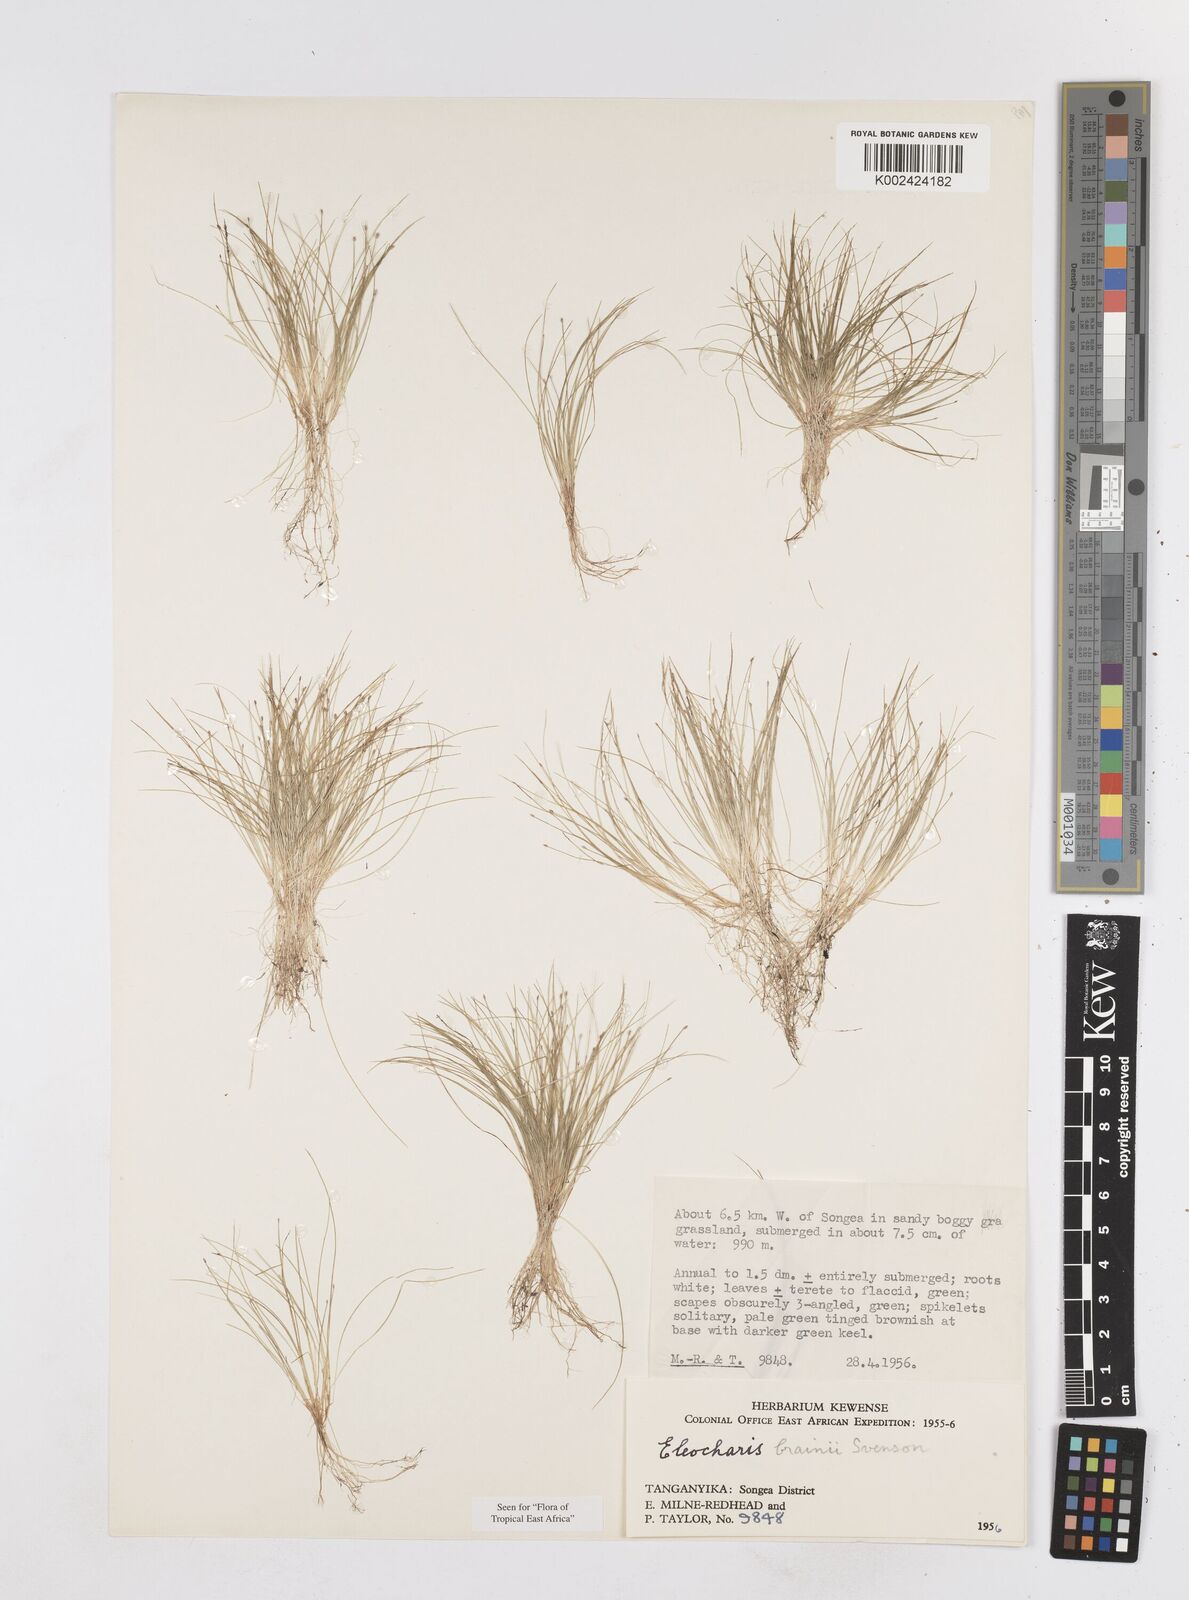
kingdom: Plantae
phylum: Tracheophyta
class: Liliopsida
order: Poales
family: Cyperaceae
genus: Eleocharis
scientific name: Eleocharis brainii
